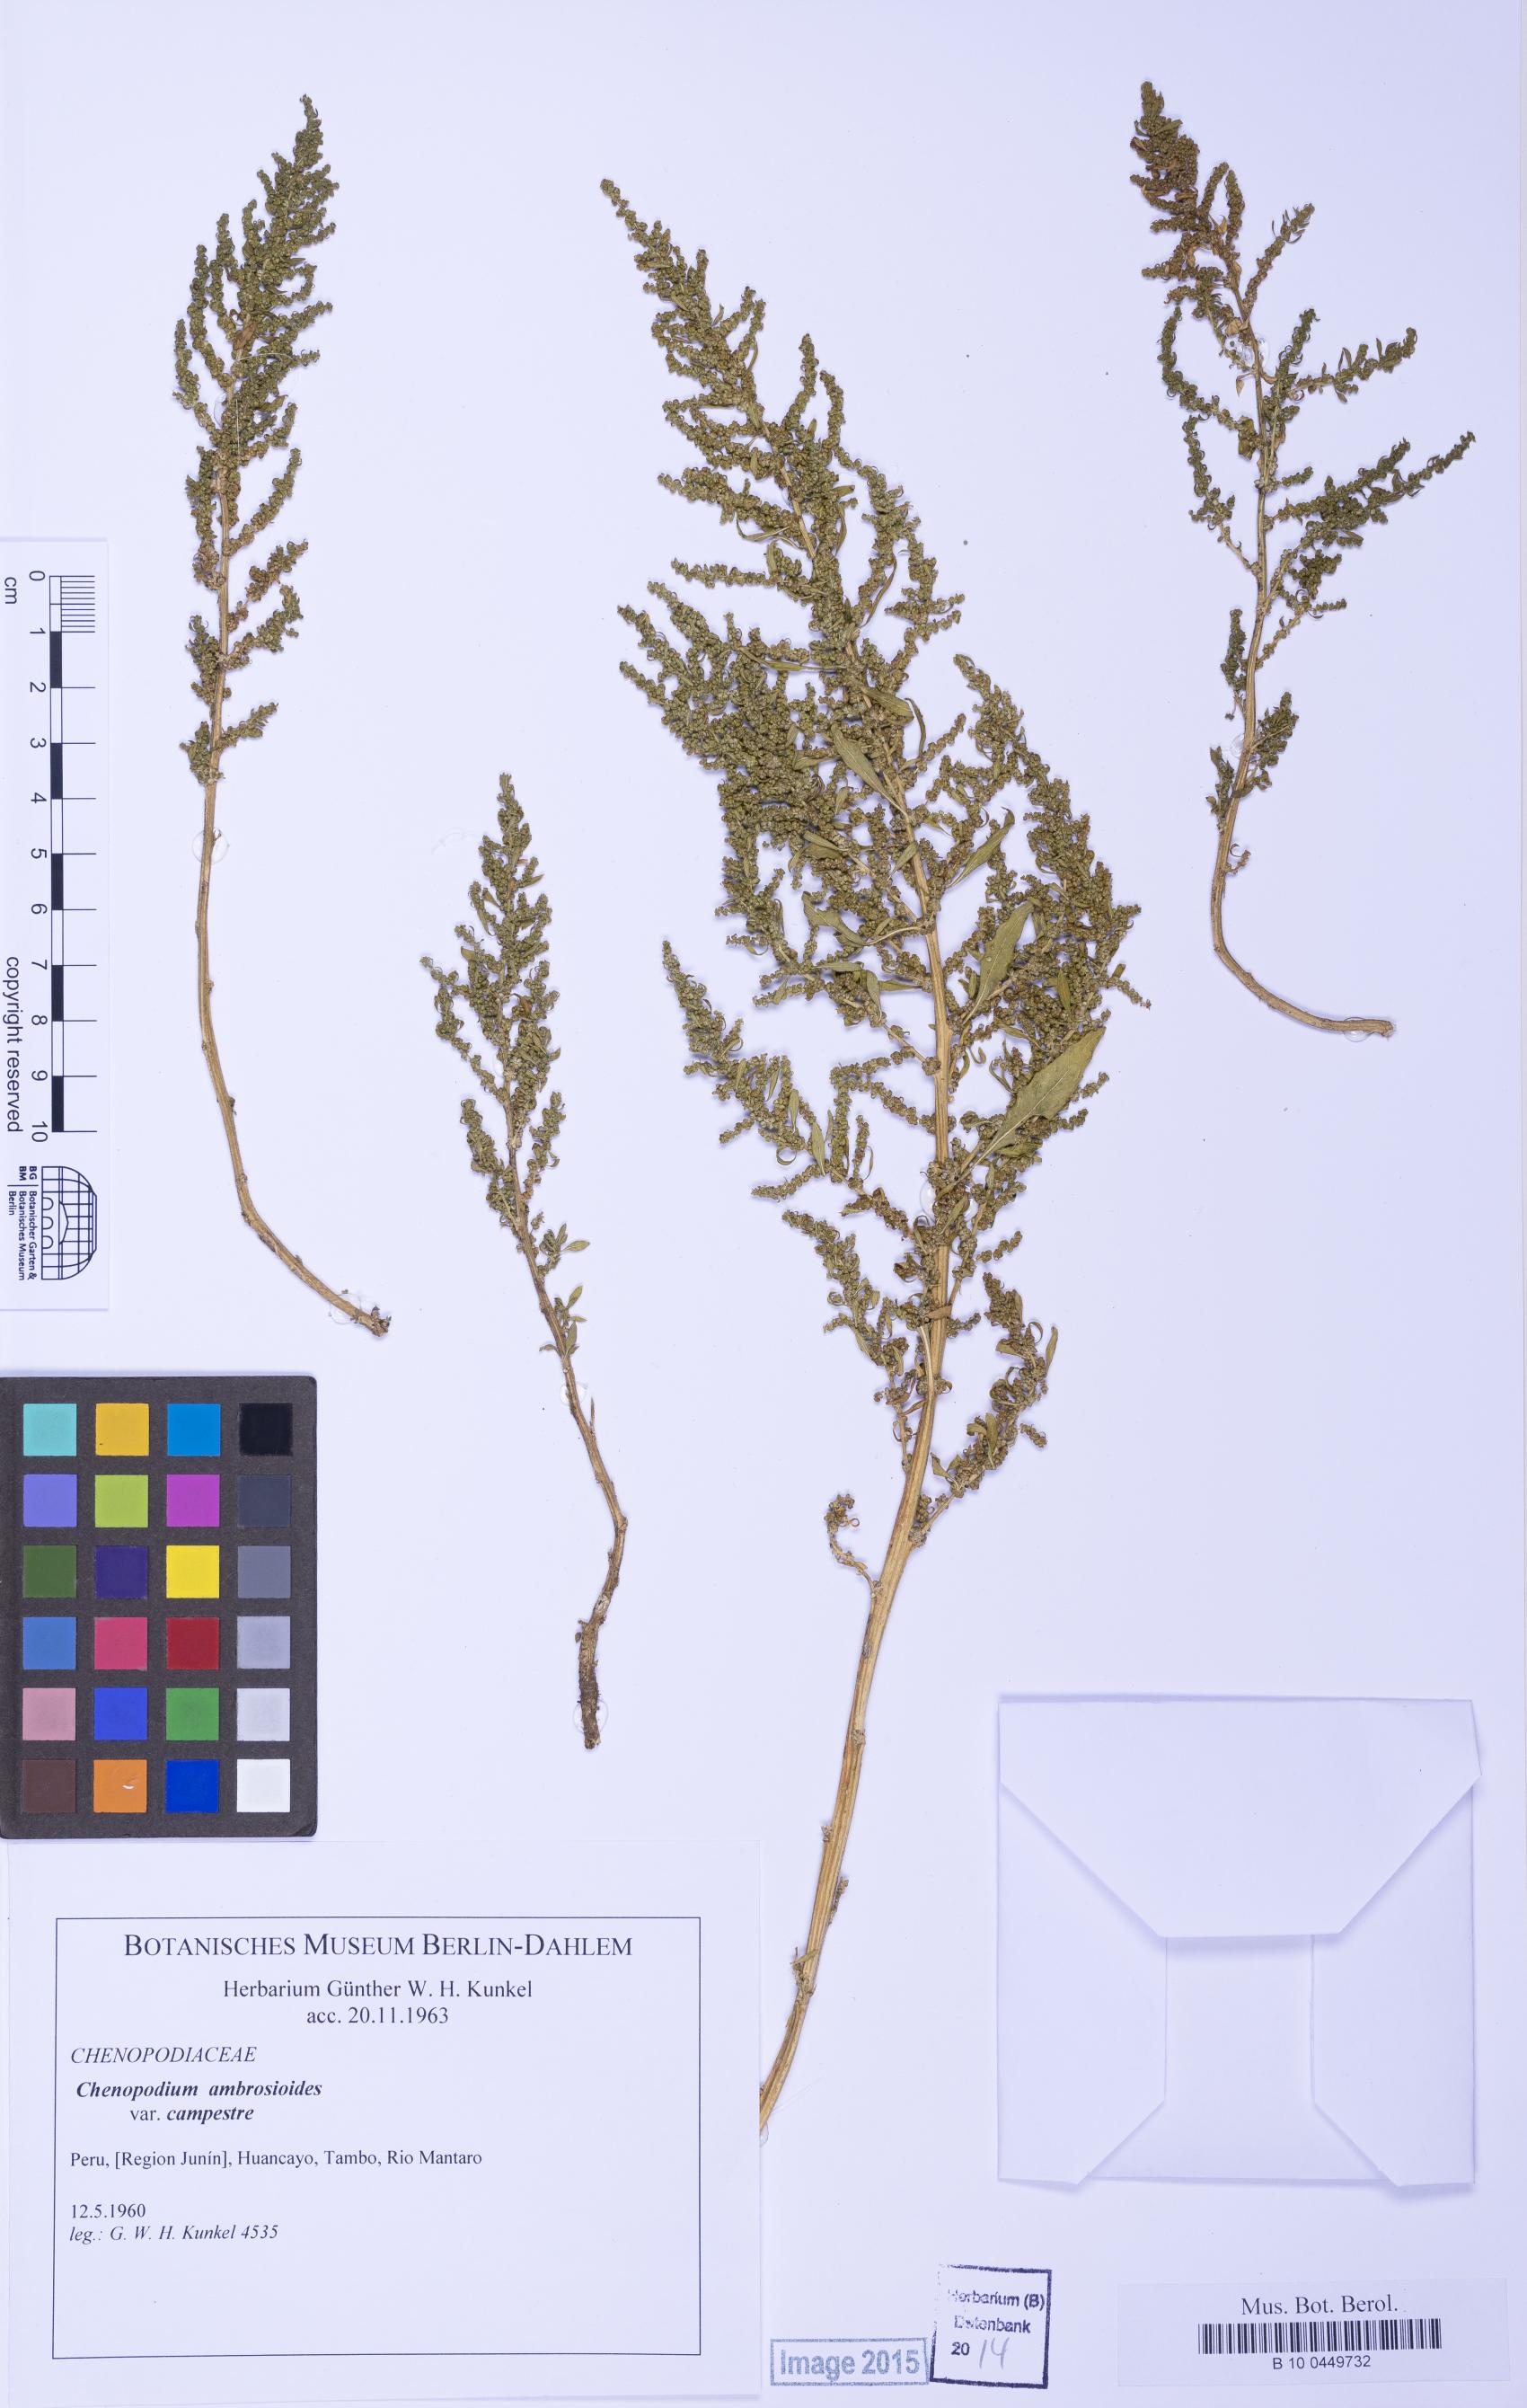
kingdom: Plantae
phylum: Tracheophyta
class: Magnoliopsida
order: Caryophyllales
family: Amaranthaceae
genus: Dysphania
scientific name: Dysphania ambrosioides
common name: Wormseed
